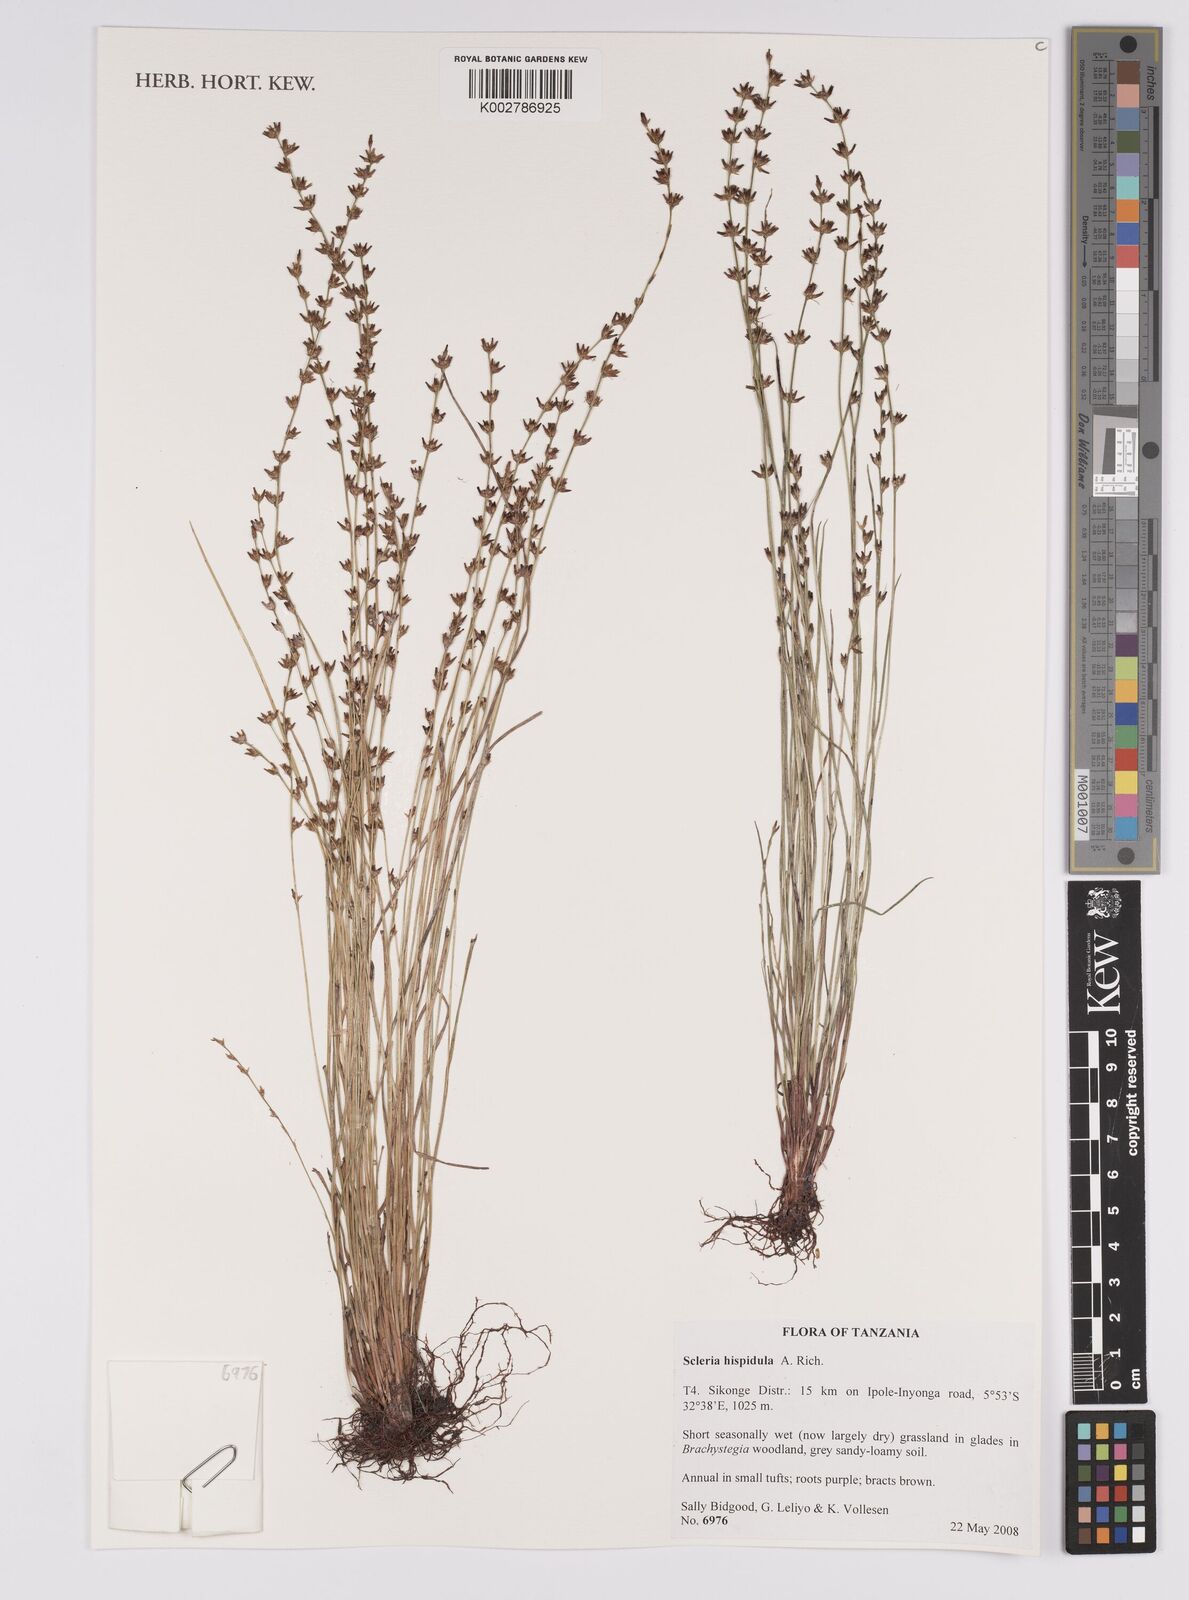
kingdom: Plantae
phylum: Tracheophyta
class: Liliopsida
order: Poales
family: Cyperaceae
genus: Scleria
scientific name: Scleria hispidula
